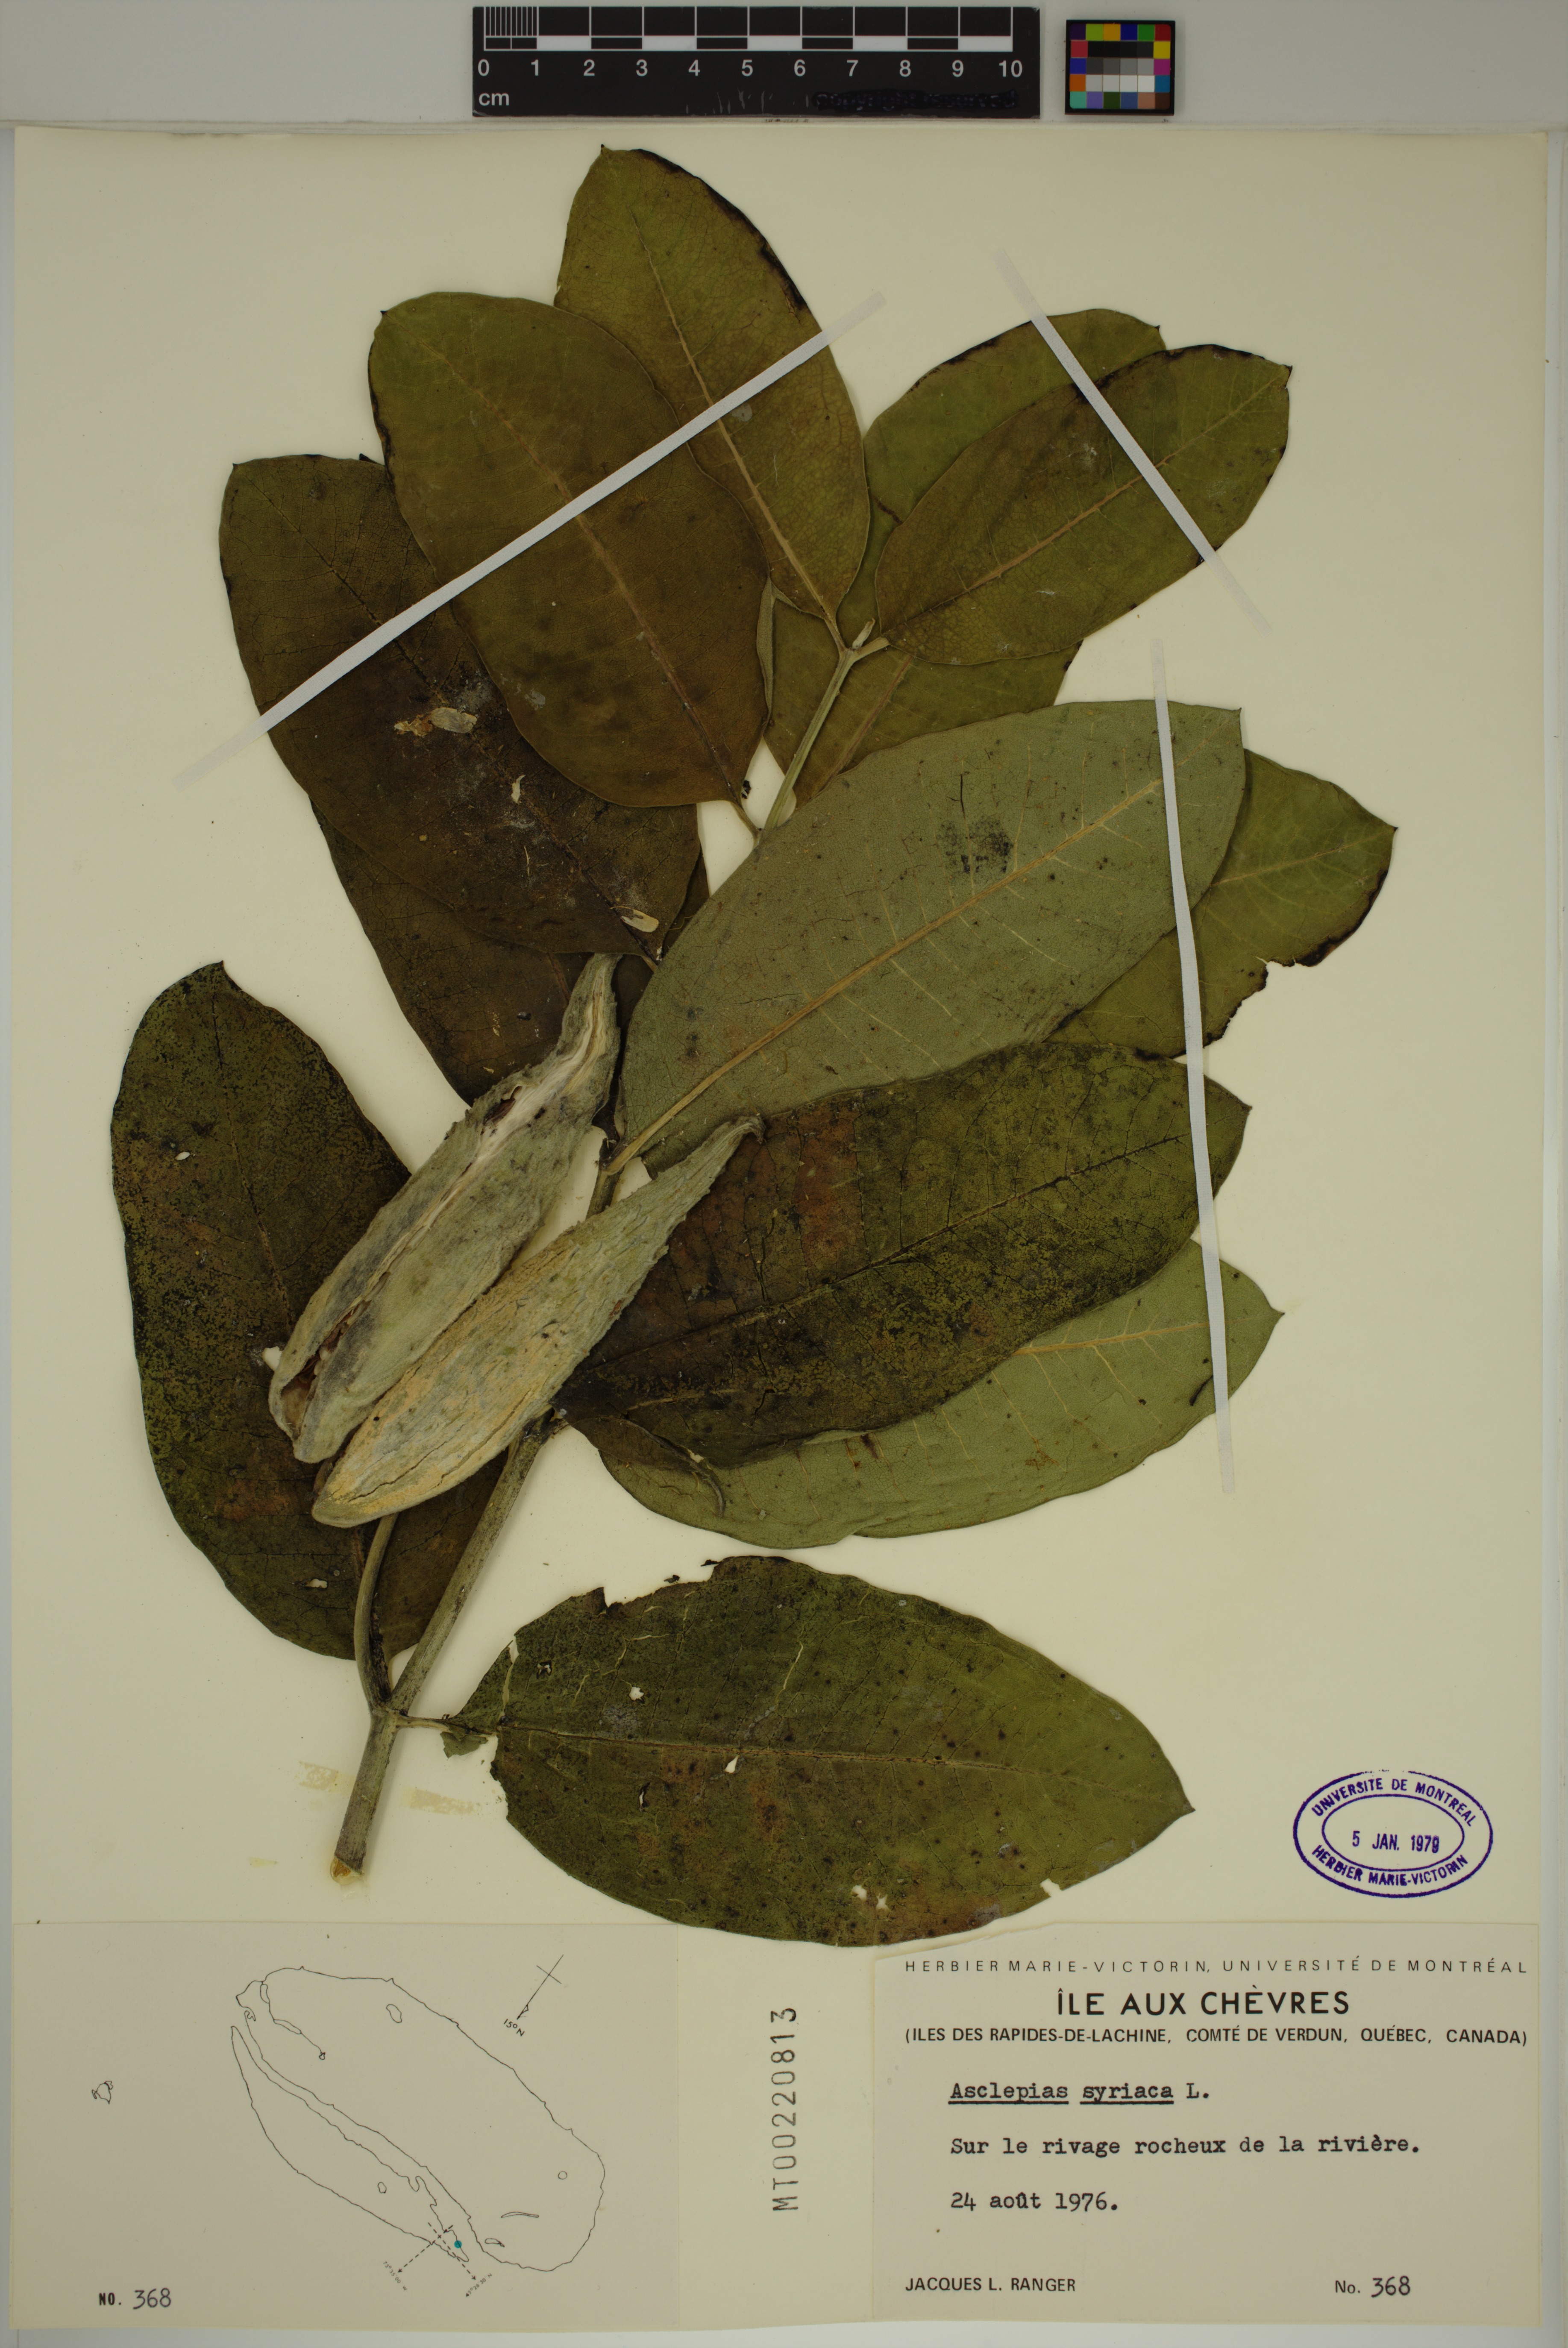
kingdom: Plantae
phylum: Tracheophyta
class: Magnoliopsida
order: Gentianales
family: Apocynaceae
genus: Asclepias
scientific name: Asclepias syriaca
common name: Common milkweed
